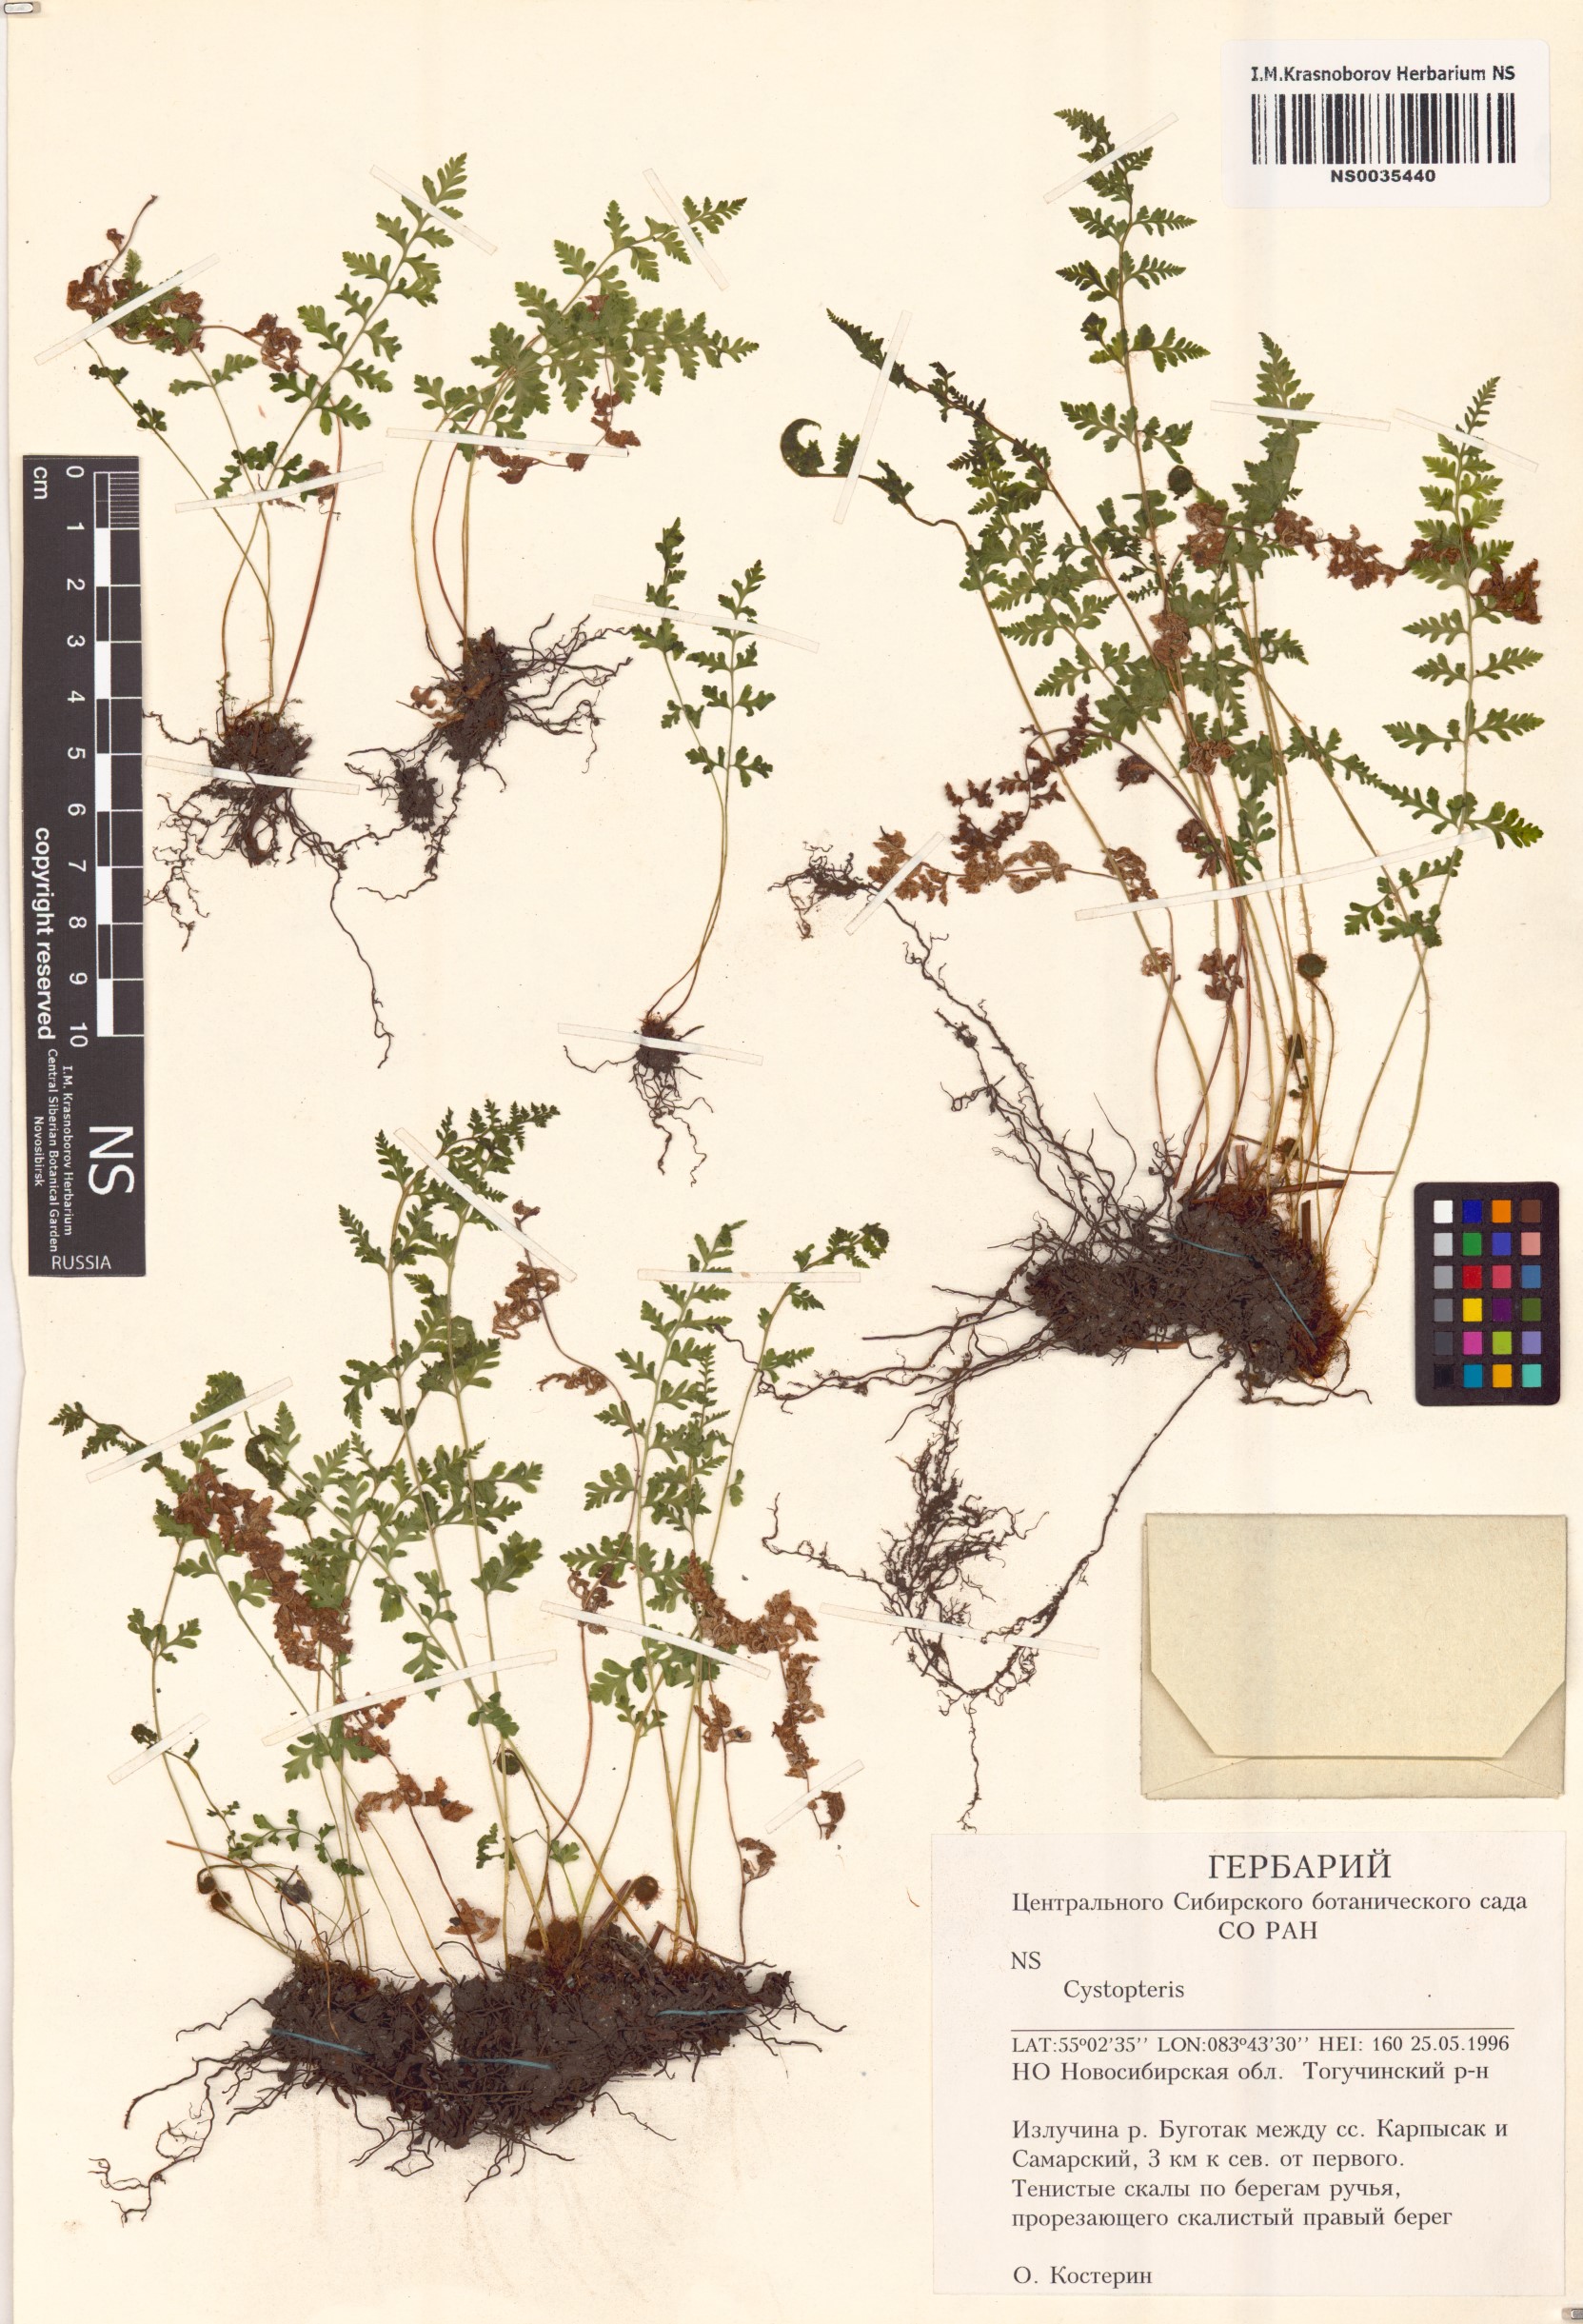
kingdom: Plantae
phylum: Tracheophyta
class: Polypodiopsida
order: Polypodiales
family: Cystopteridaceae
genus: Cystopteris
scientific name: Cystopteris
